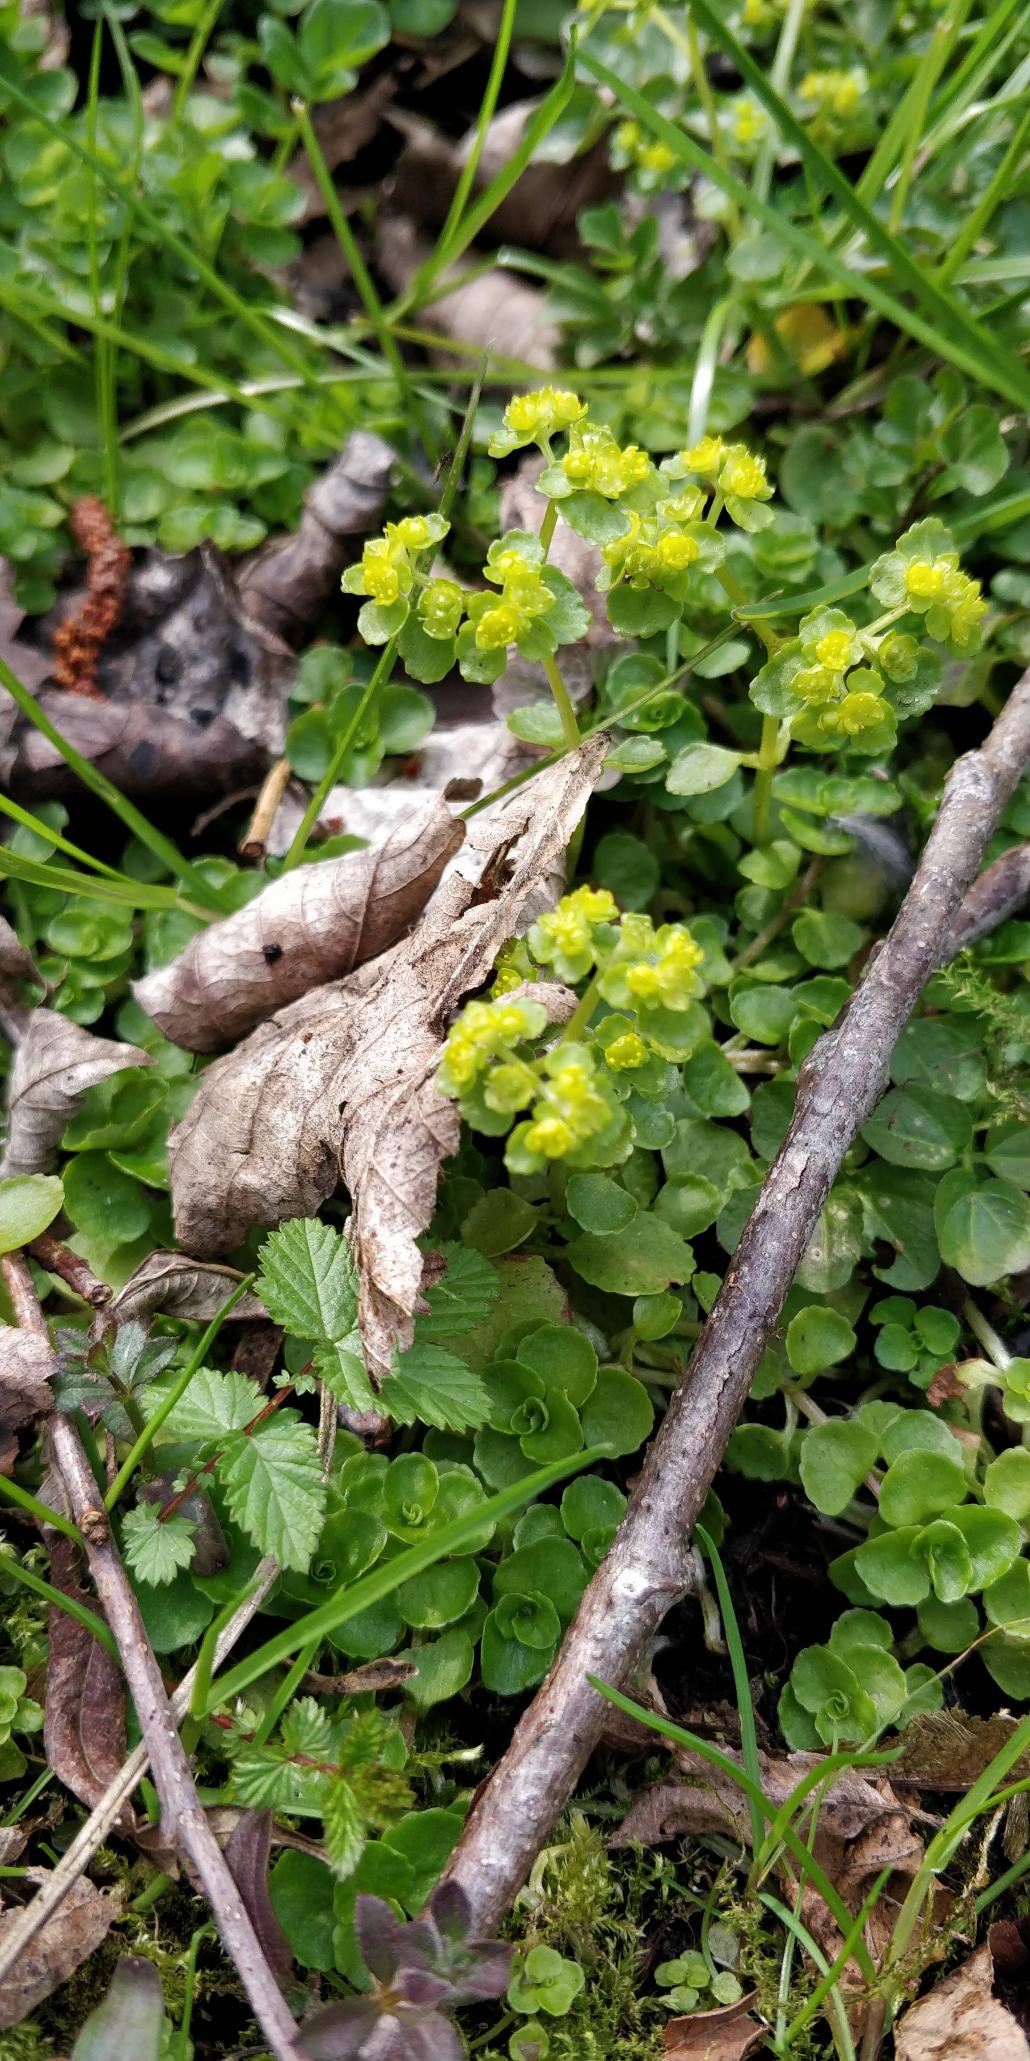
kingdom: Plantae
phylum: Tracheophyta
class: Magnoliopsida
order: Saxifragales
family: Saxifragaceae
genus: Chrysosplenium
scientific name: Chrysosplenium oppositifolium
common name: Småbladet milturt
